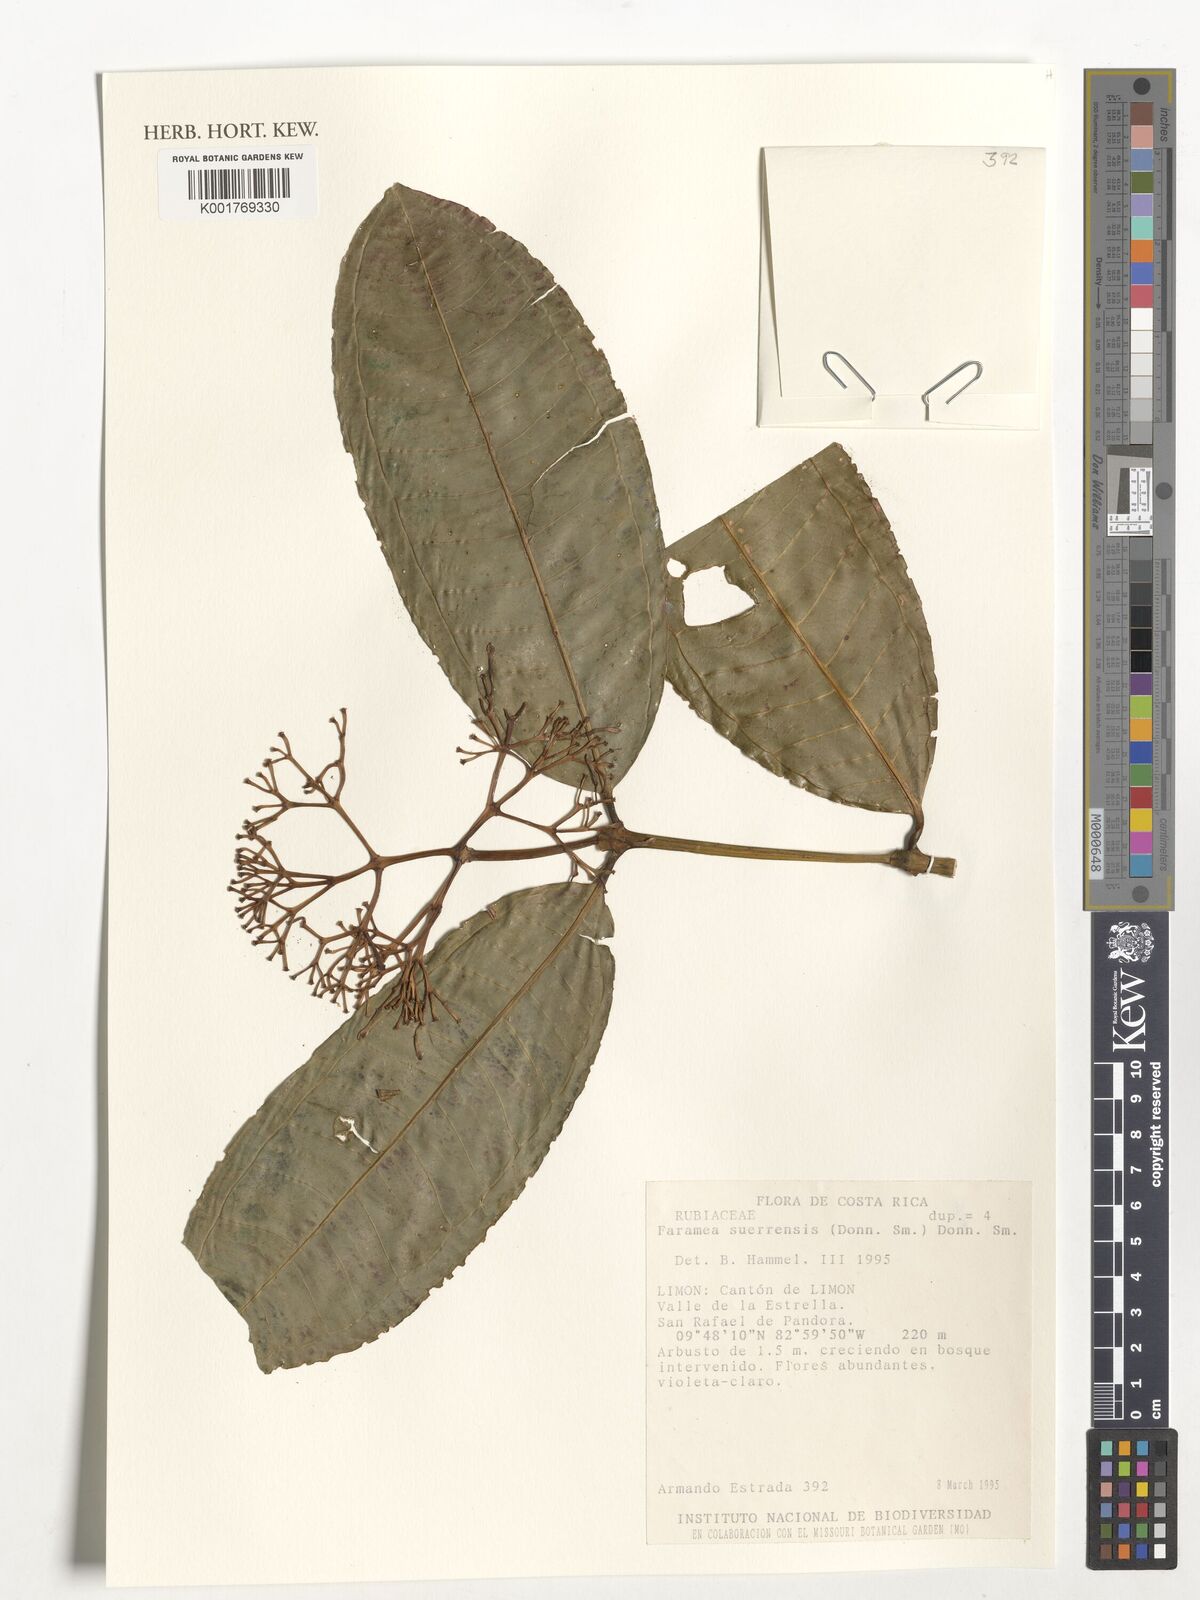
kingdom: Plantae
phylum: Tracheophyta
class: Magnoliopsida
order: Gentianales
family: Rubiaceae
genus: Faramea
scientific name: Faramea suerrensis
